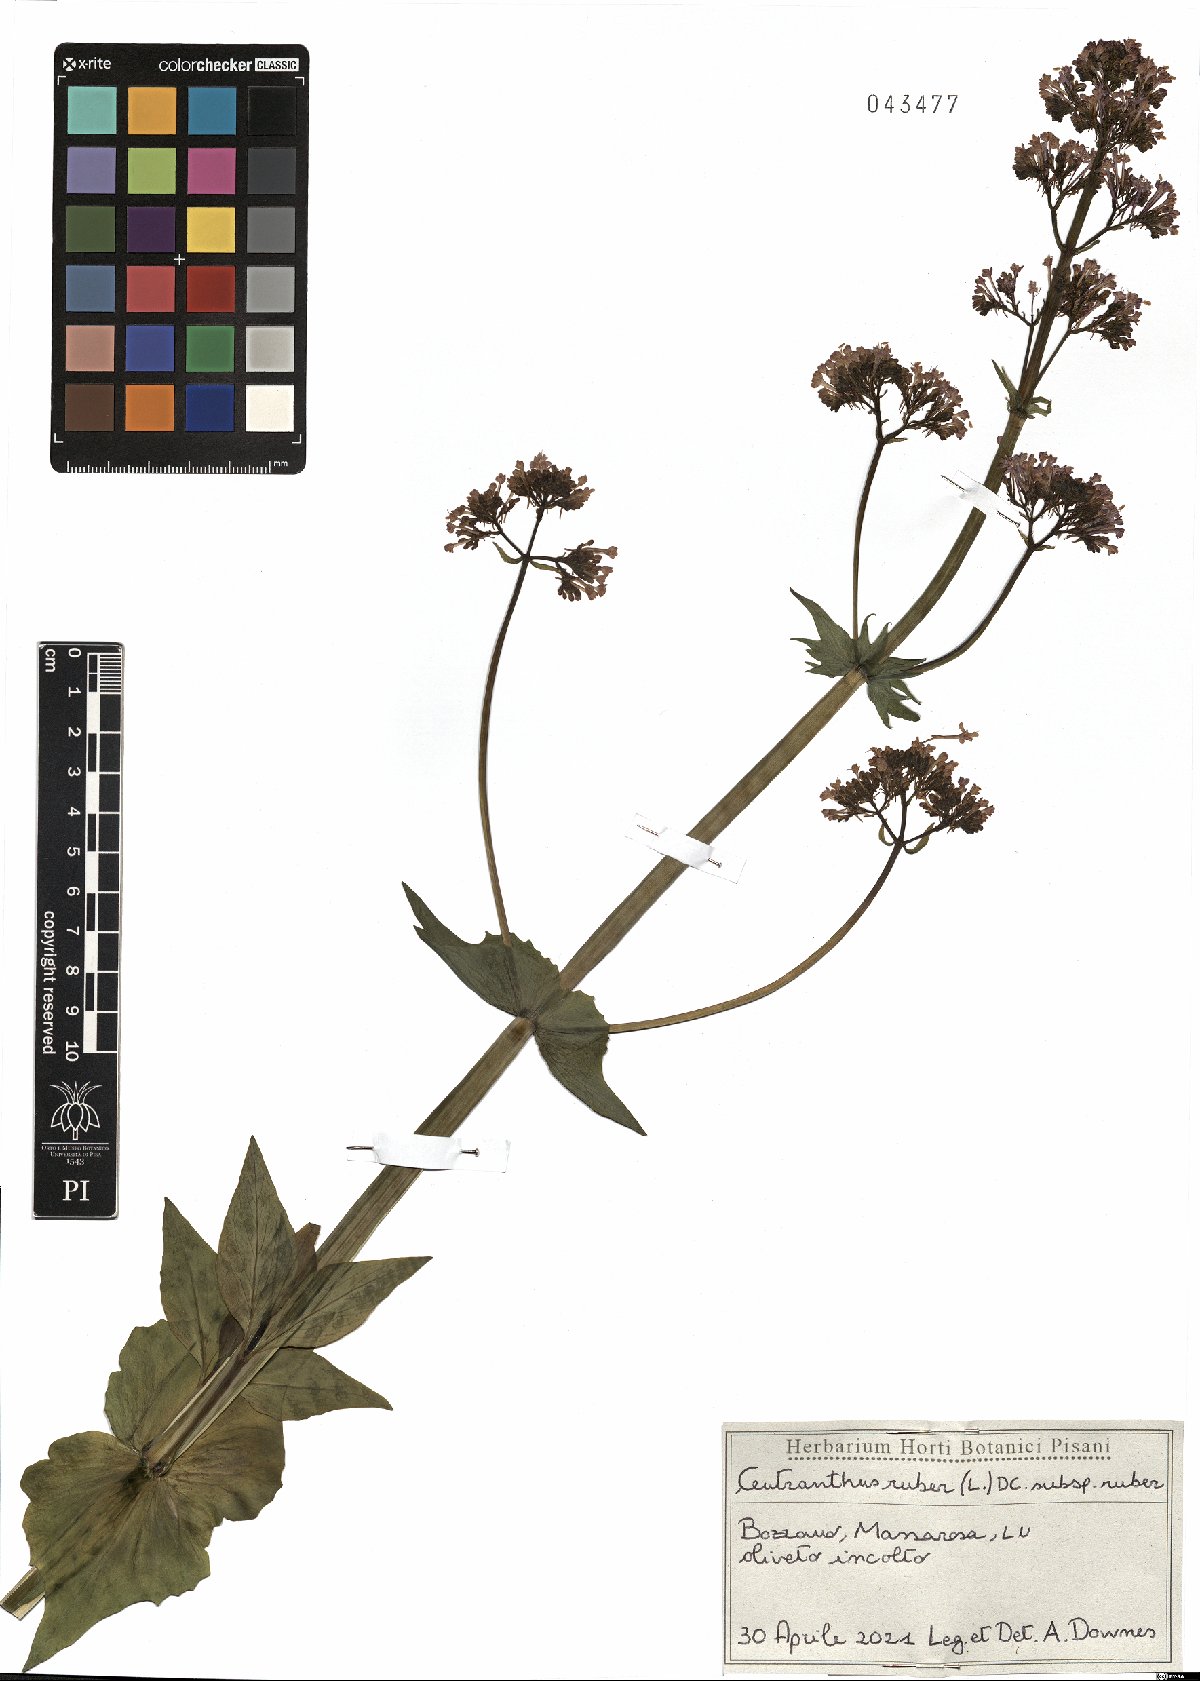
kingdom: Plantae
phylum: Tracheophyta
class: Magnoliopsida
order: Dipsacales
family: Caprifoliaceae
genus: Centranthus
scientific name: Centranthus ruber
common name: Red valerian
